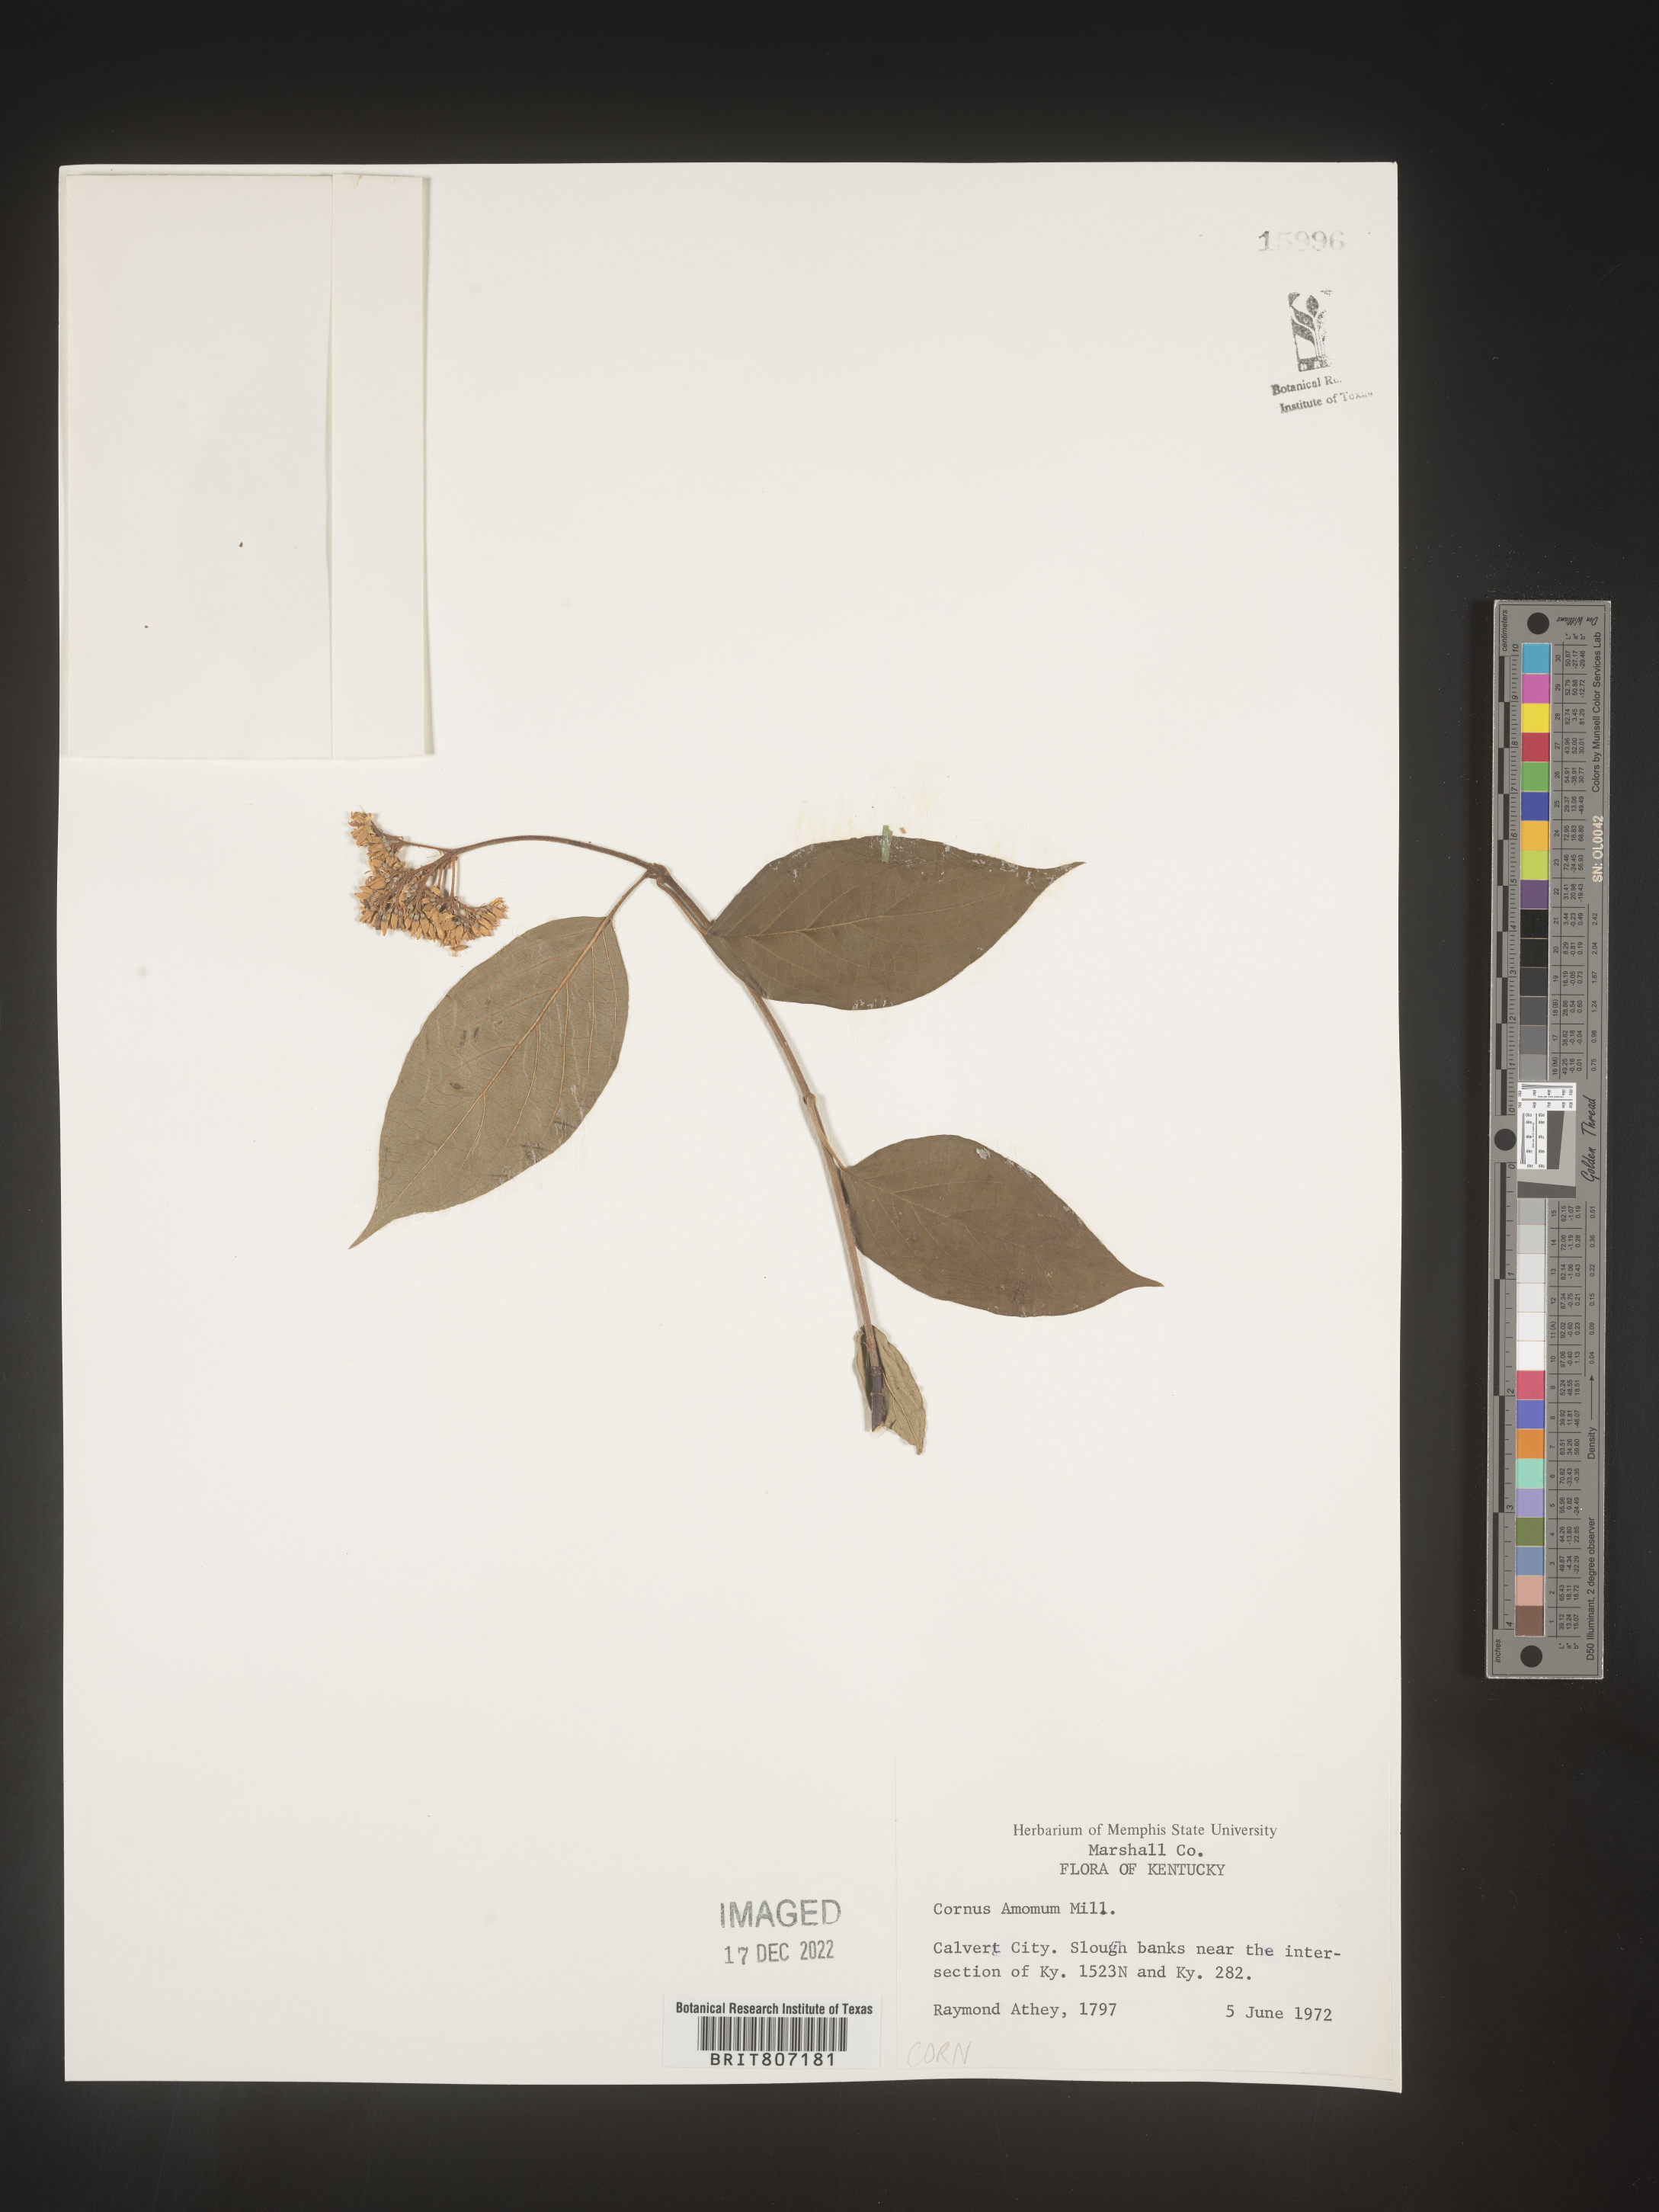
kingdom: Plantae
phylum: Tracheophyta
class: Magnoliopsida
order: Cornales
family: Cornaceae
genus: Cornus
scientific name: Cornus amomum
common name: Silky dogwood
